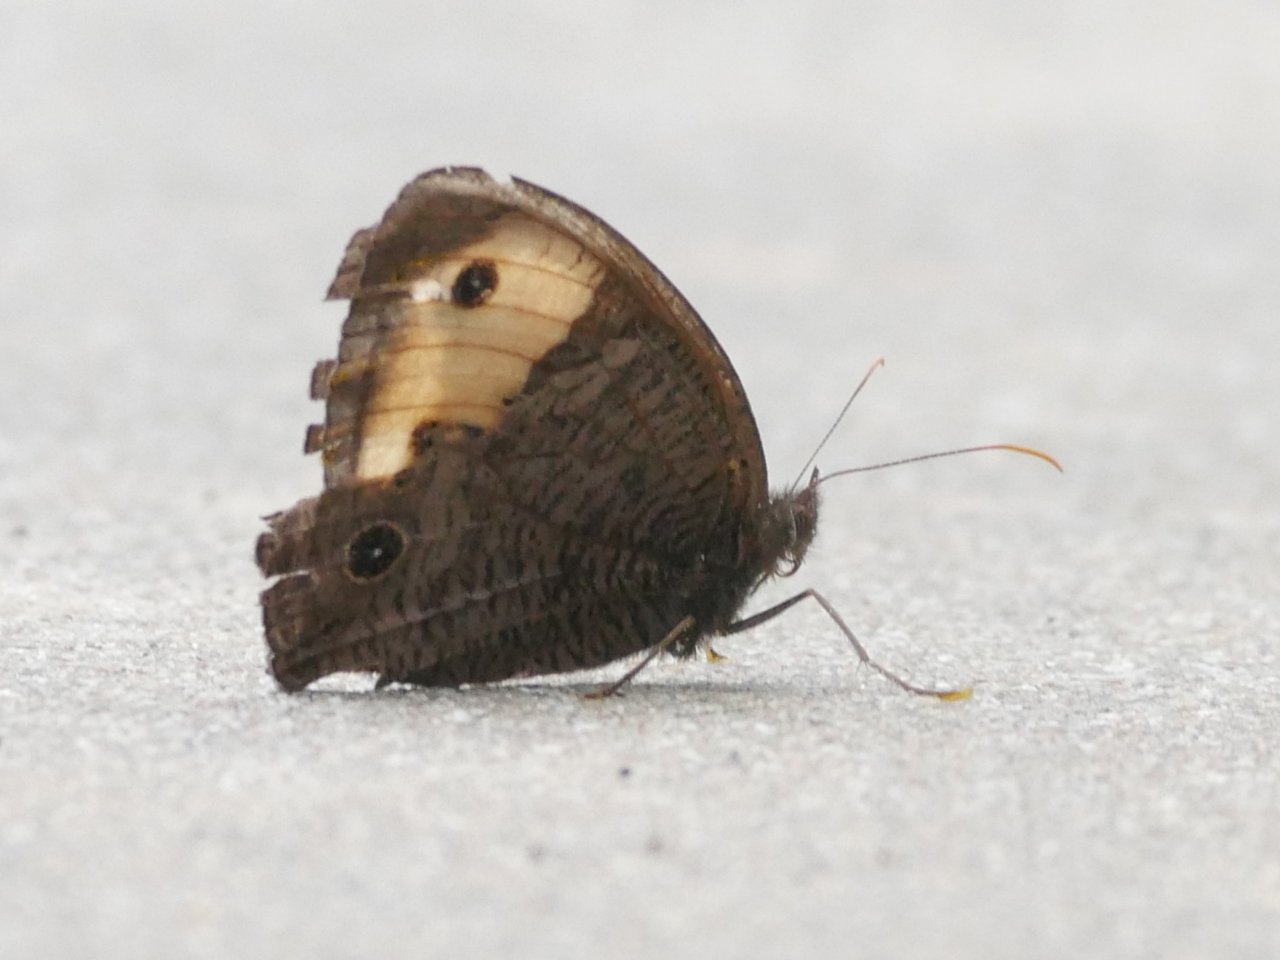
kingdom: Animalia
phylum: Arthropoda
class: Insecta
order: Lepidoptera
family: Nymphalidae
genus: Cercyonis
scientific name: Cercyonis pegala
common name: Common Wood-Nymph
